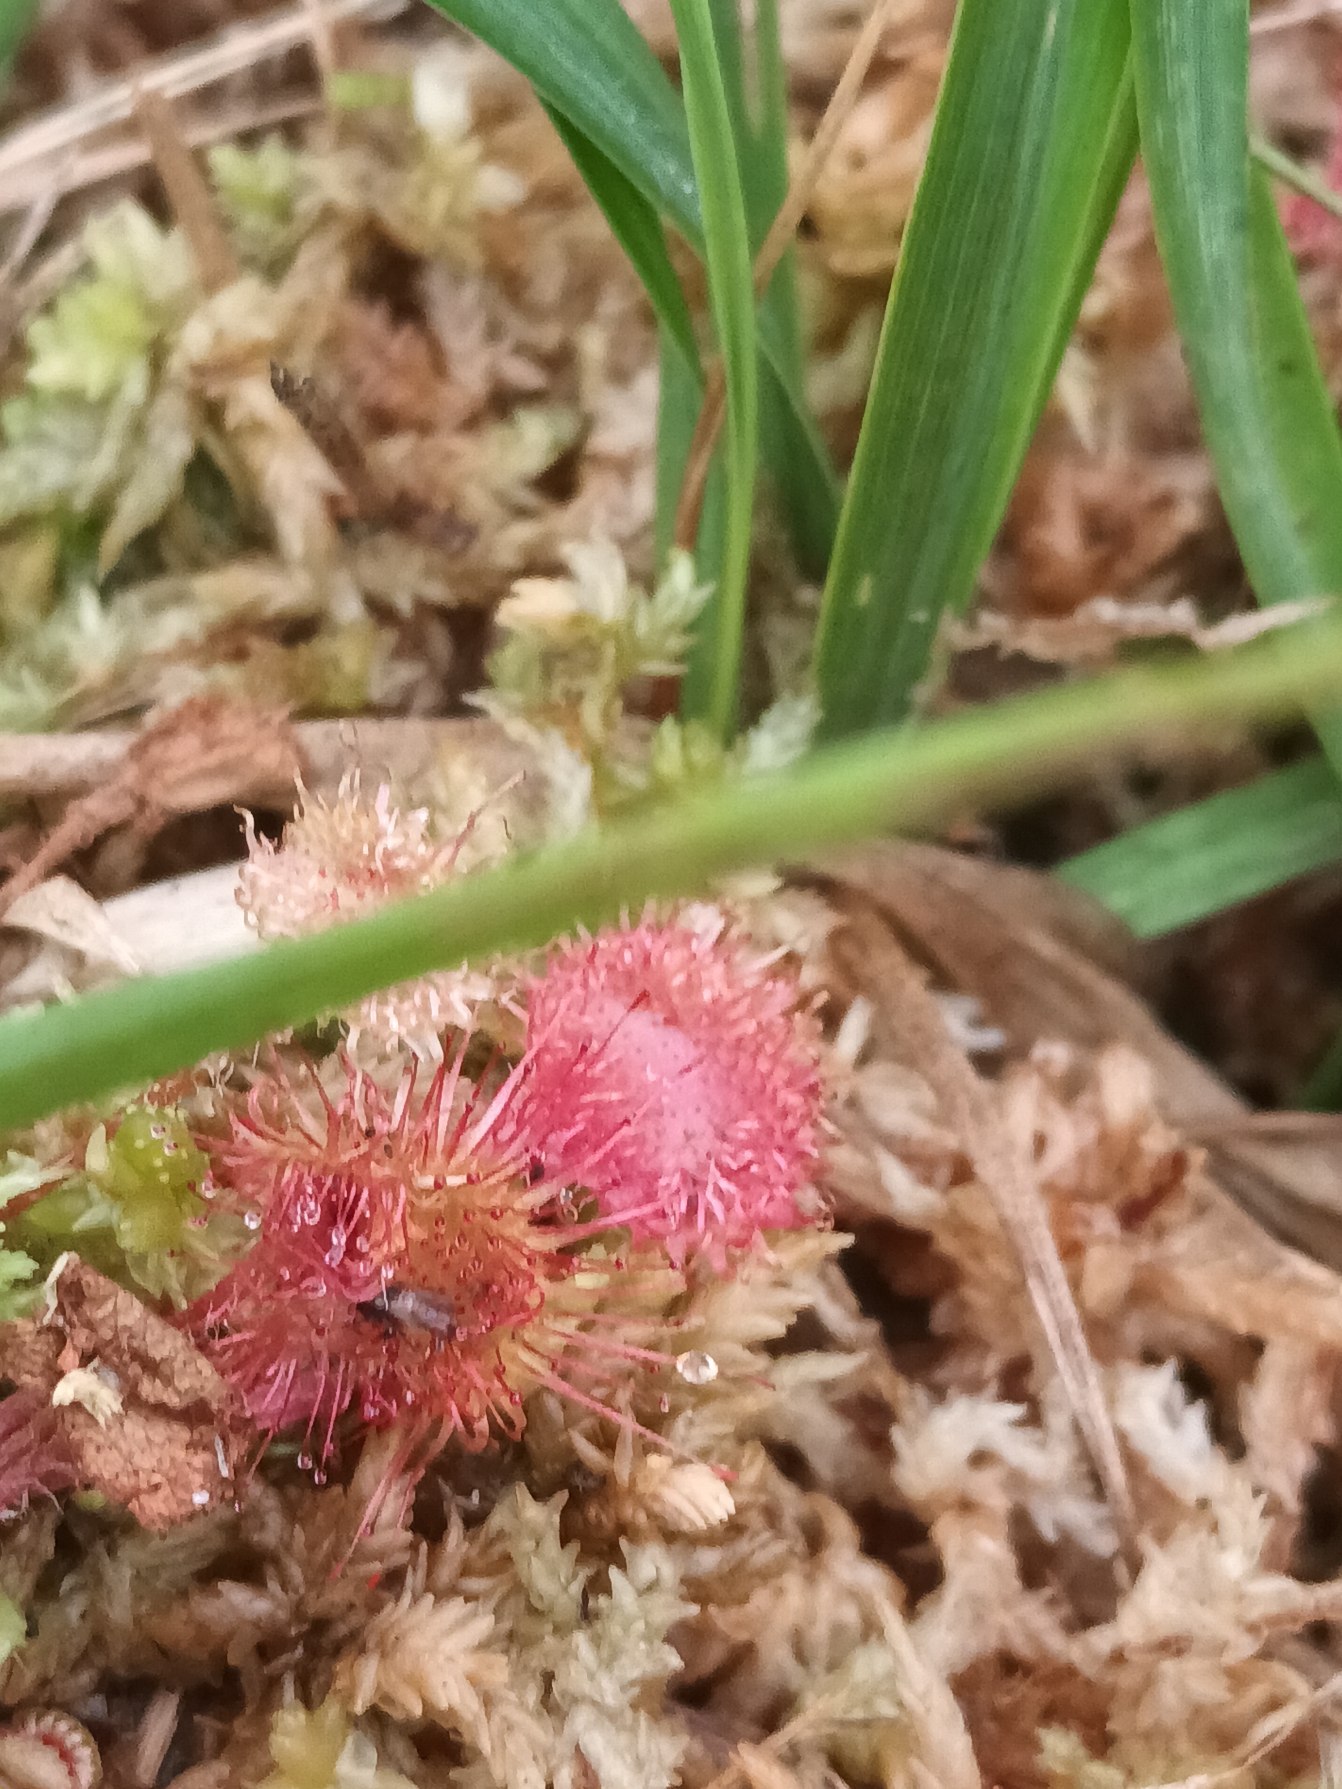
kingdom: Plantae
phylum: Tracheophyta
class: Magnoliopsida
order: Caryophyllales
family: Droseraceae
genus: Drosera
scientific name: Drosera rotundifolia
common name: Rundbladet soldug
